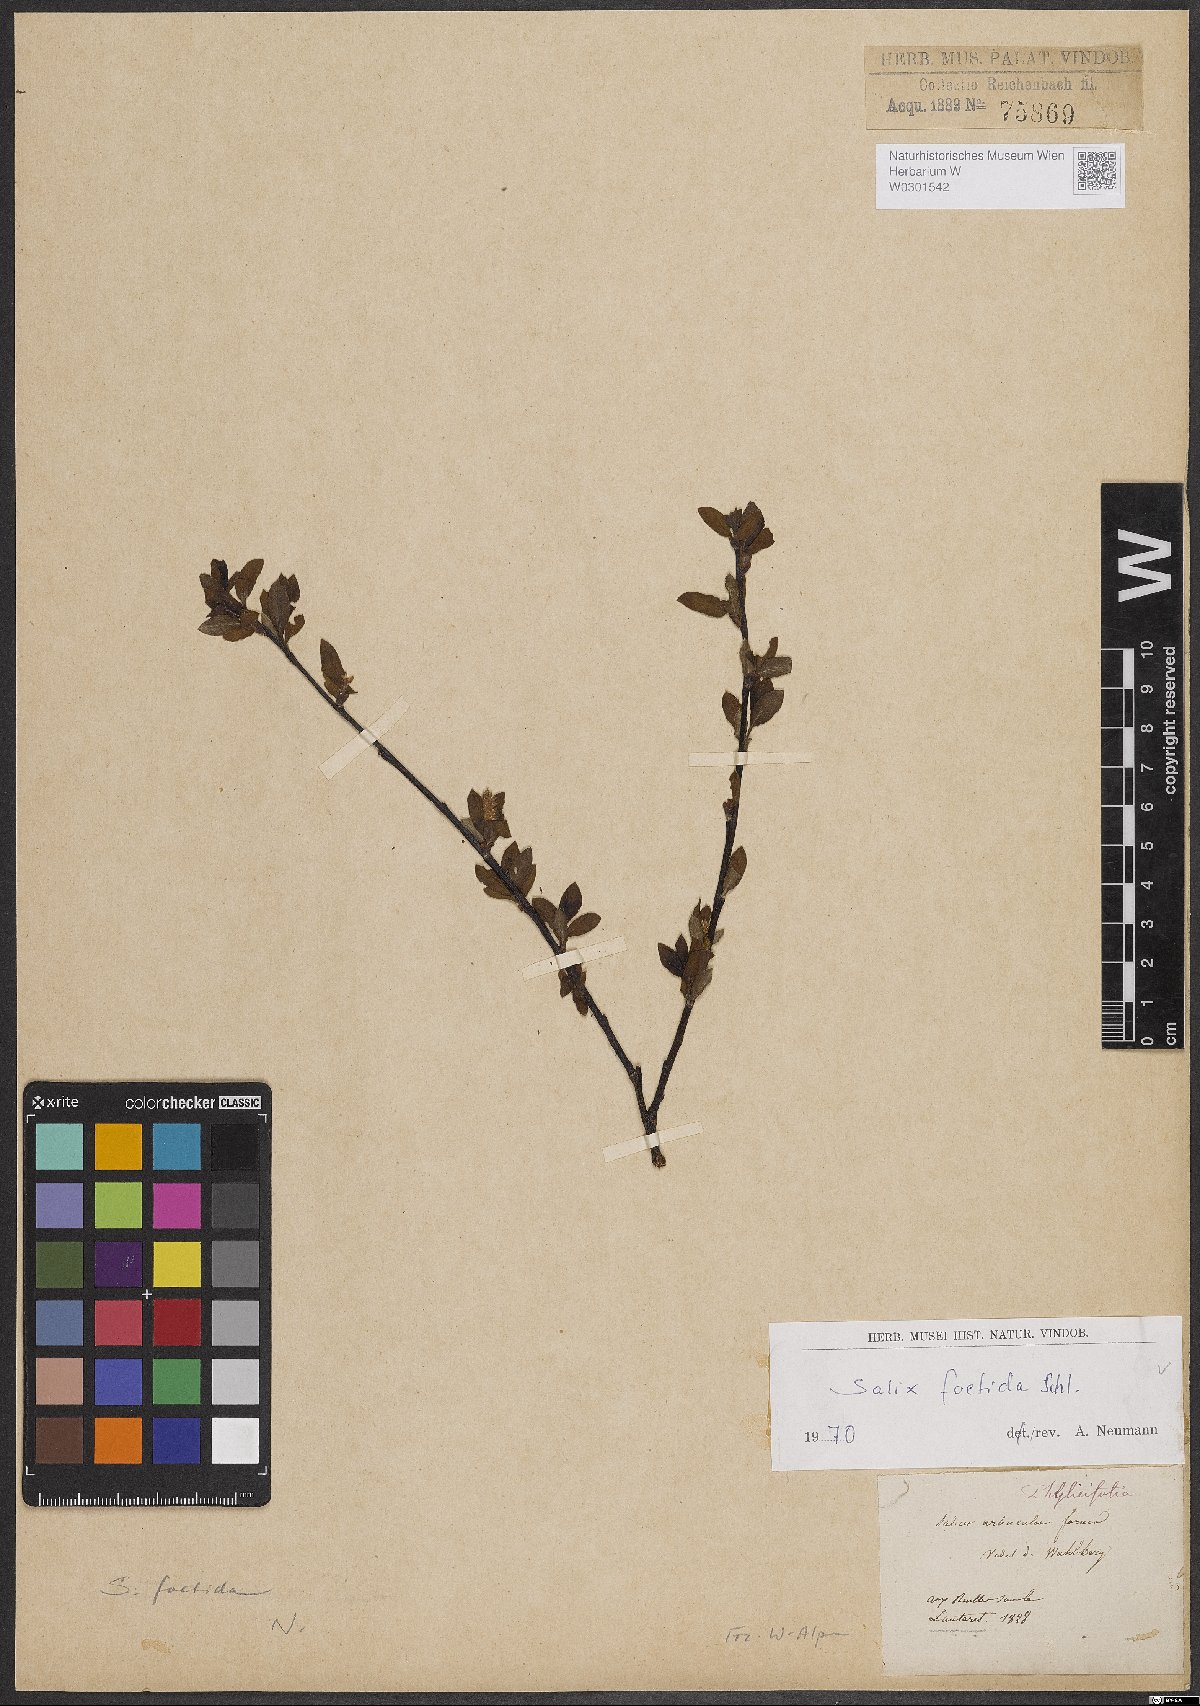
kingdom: Plantae
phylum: Tracheophyta
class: Magnoliopsida
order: Malpighiales
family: Salicaceae
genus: Salix
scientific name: Salix foetida
